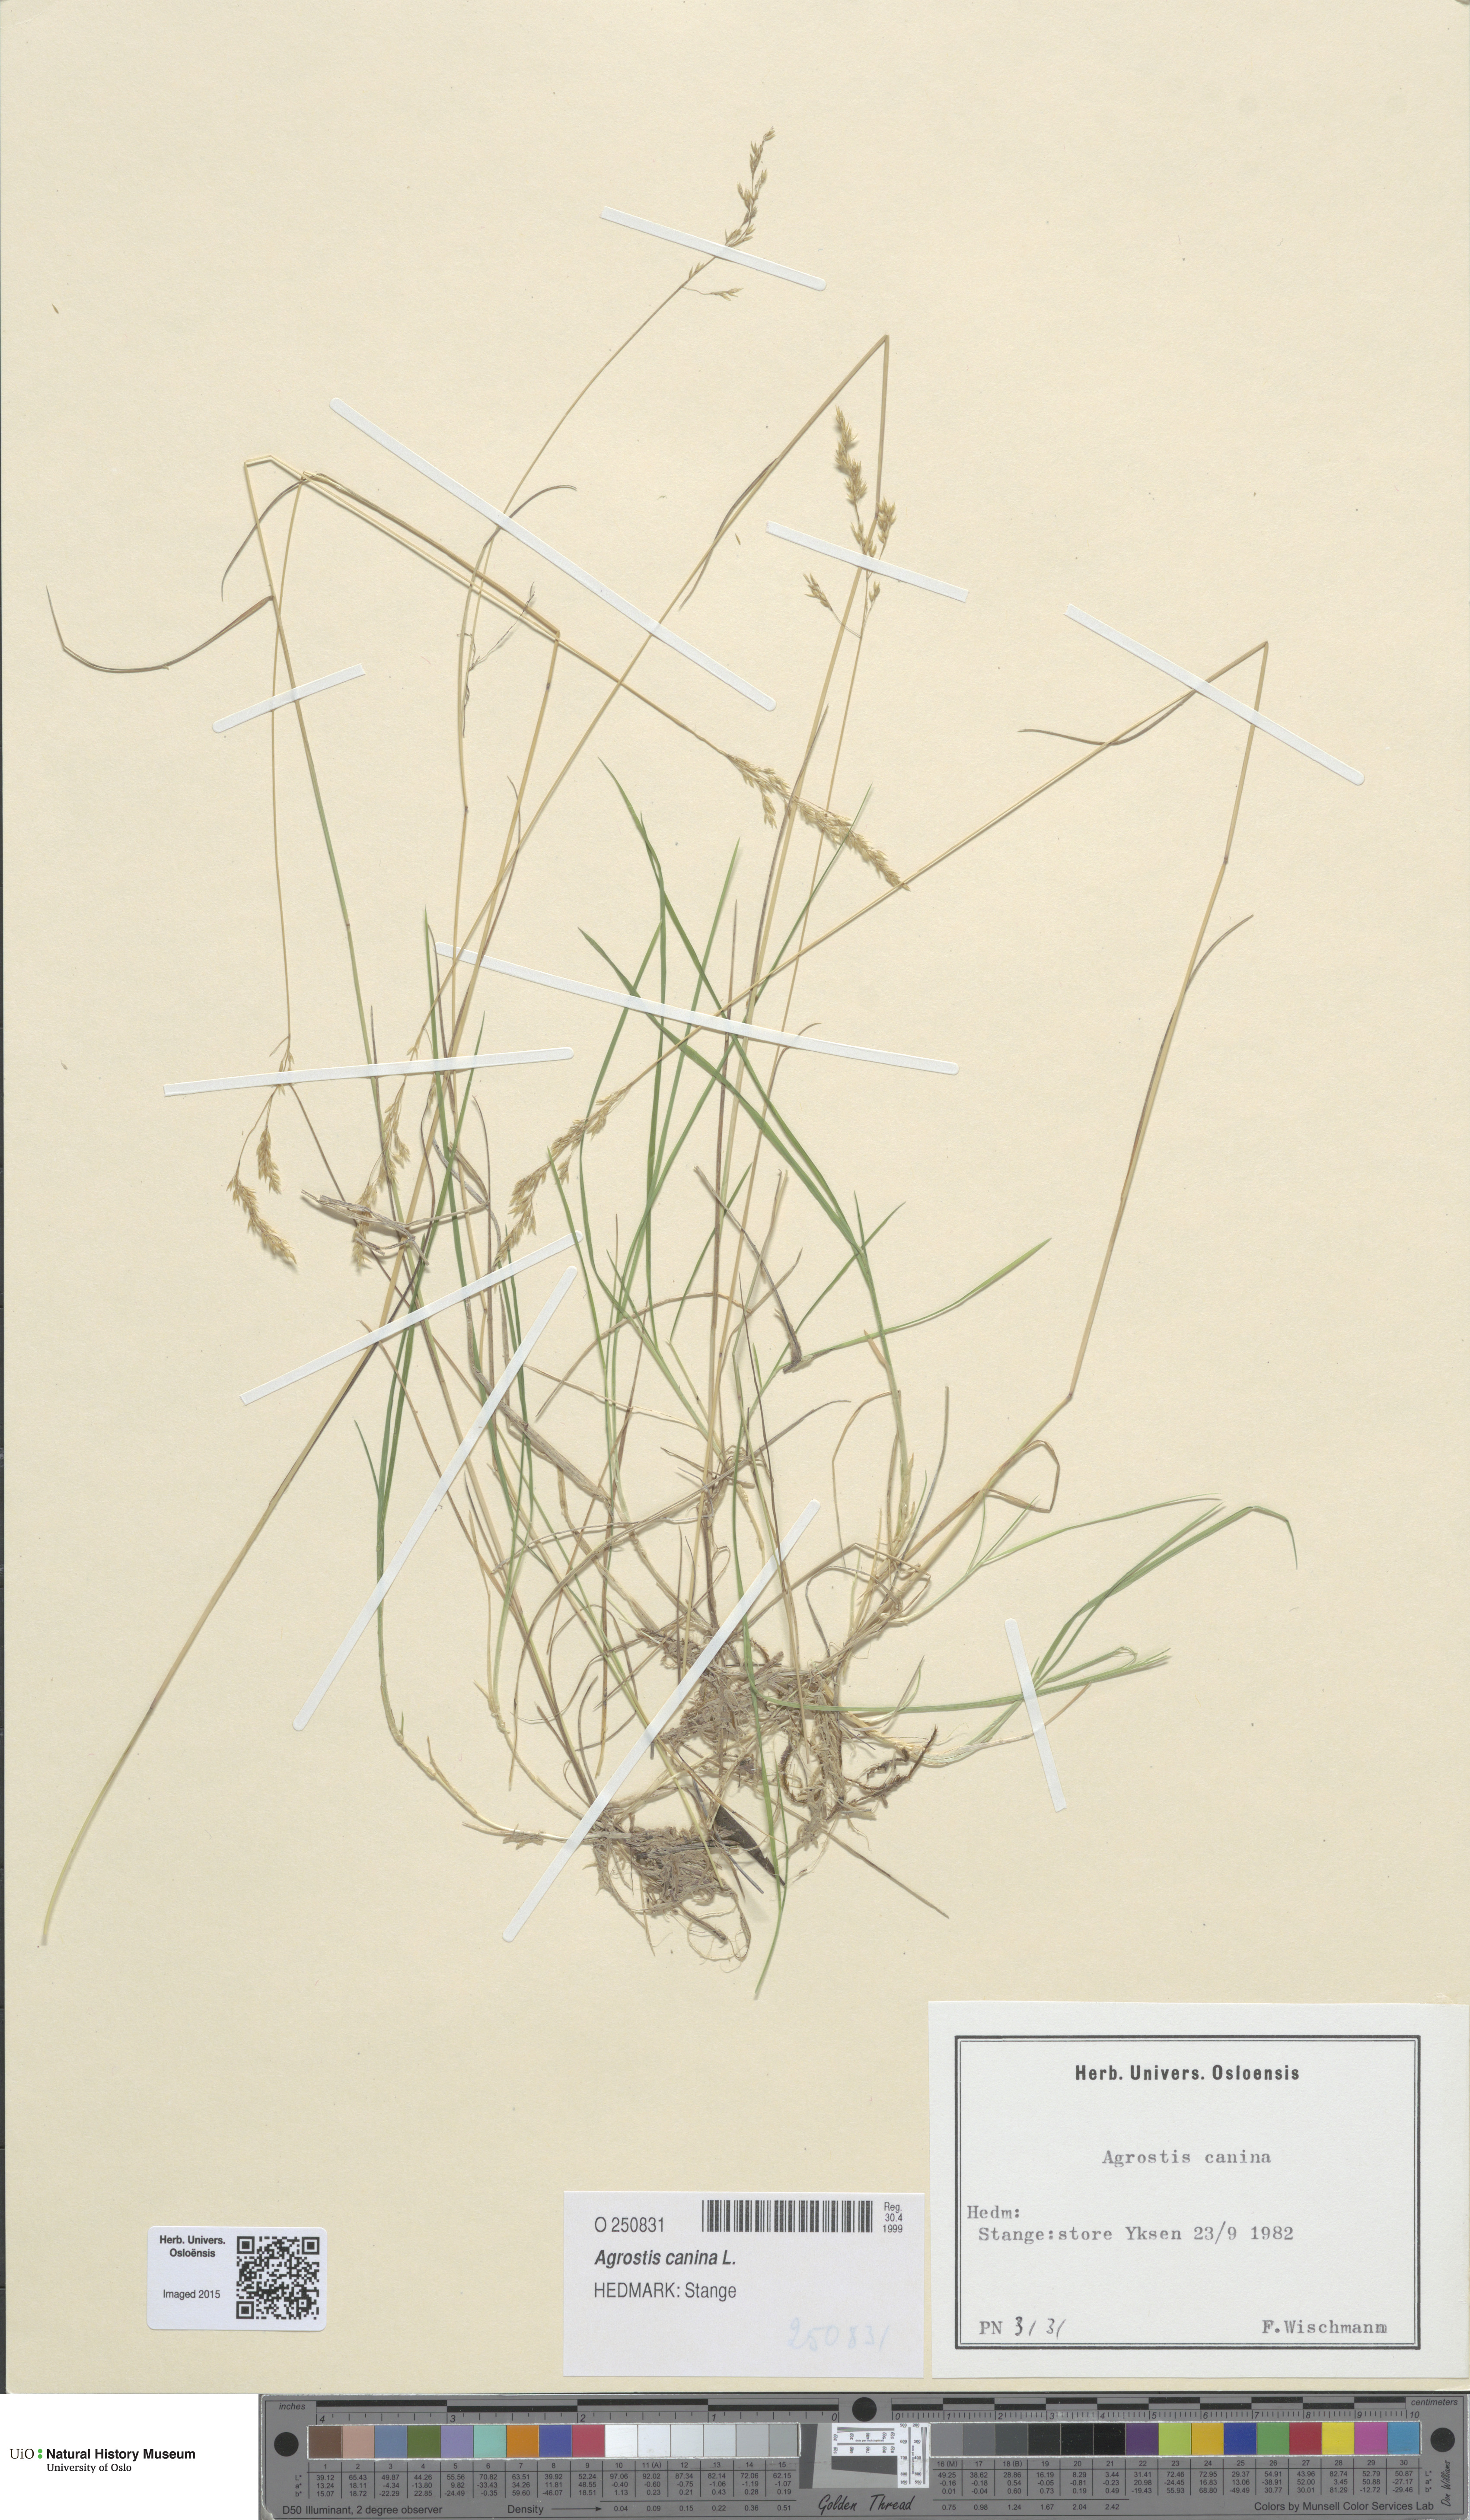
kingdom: Plantae
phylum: Tracheophyta
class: Liliopsida
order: Poales
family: Poaceae
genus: Agrostis
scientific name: Agrostis canina
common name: Velvet bent
